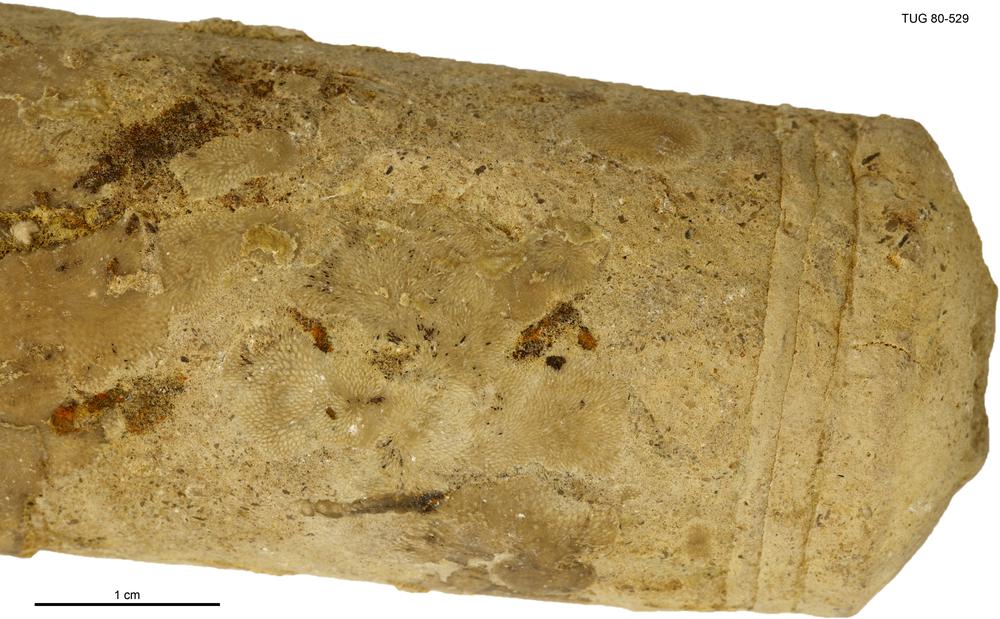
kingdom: Animalia
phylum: Bryozoa
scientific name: Bryozoa
